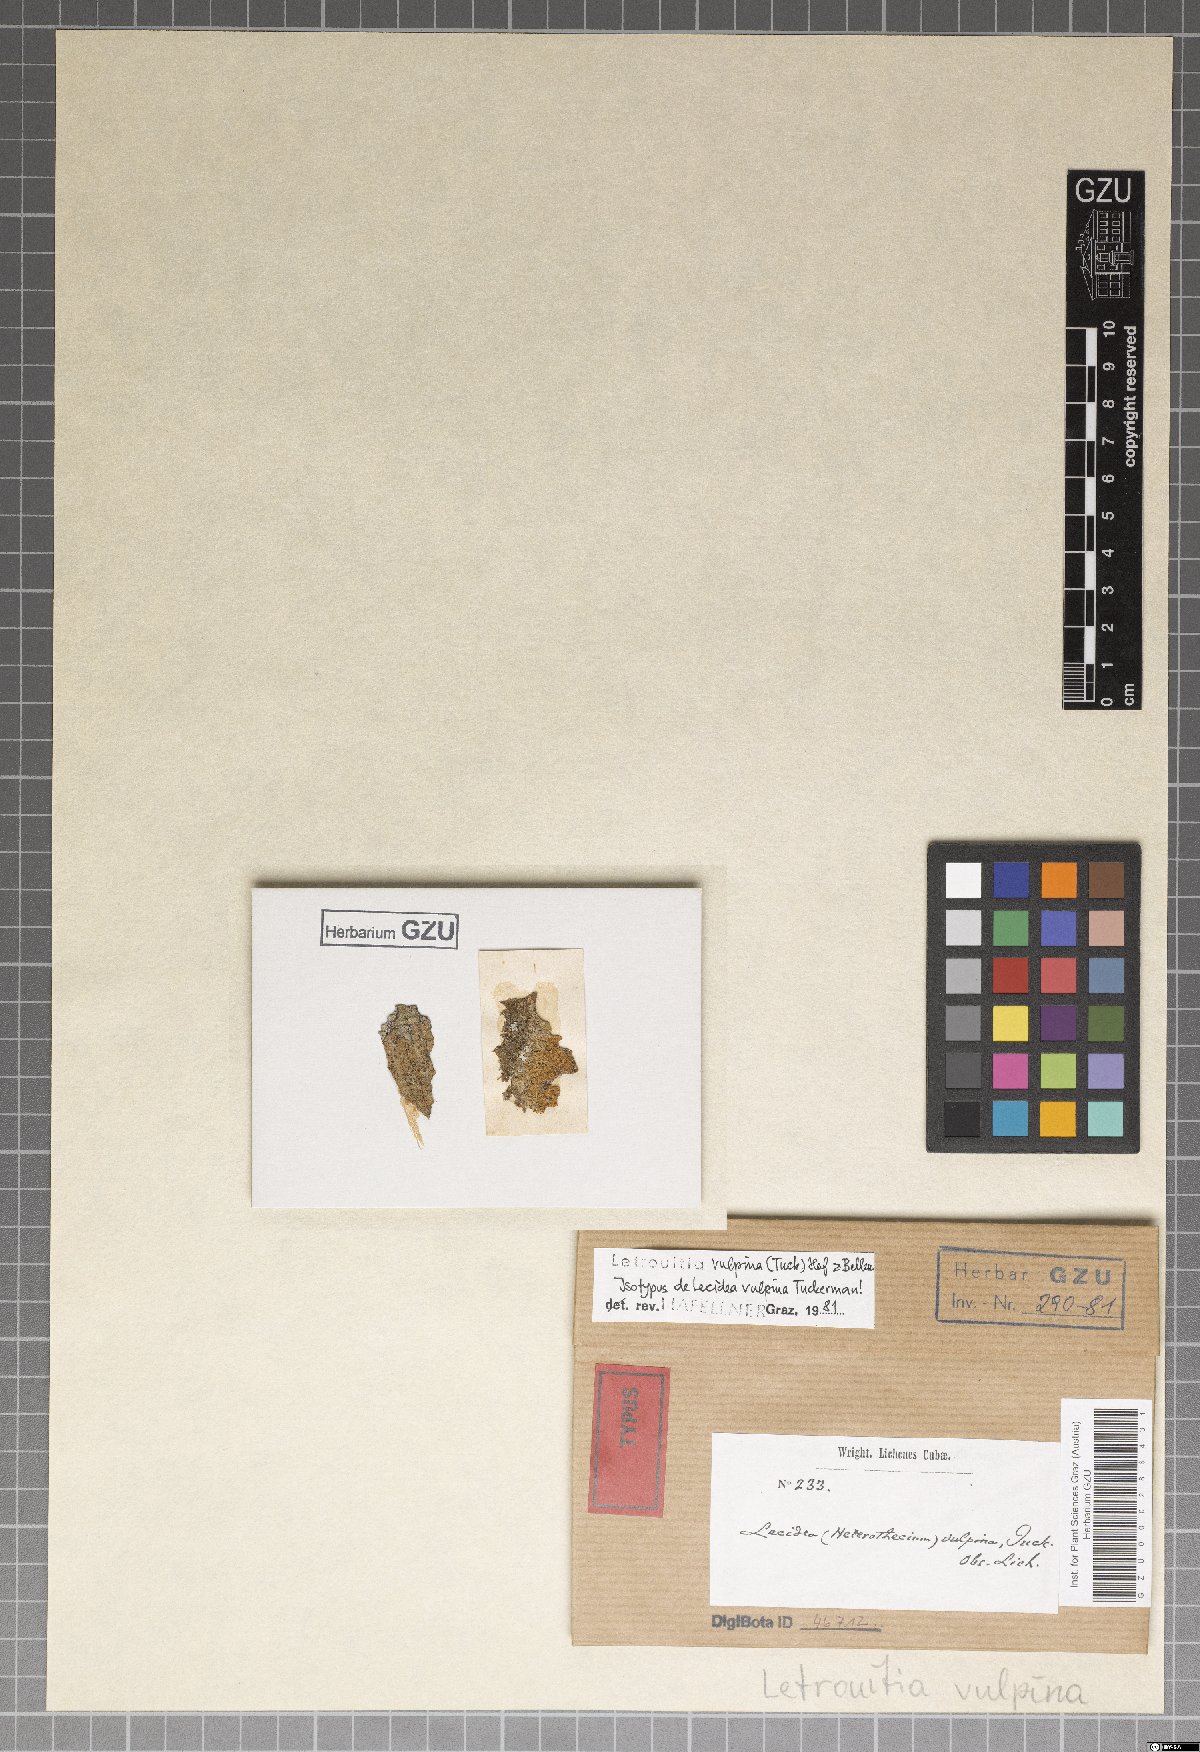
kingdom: Fungi
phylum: Ascomycota
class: Lecanoromycetes
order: Teloschistales
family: Letrouitiaceae
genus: Letrouitia
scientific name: Letrouitia vulpina
